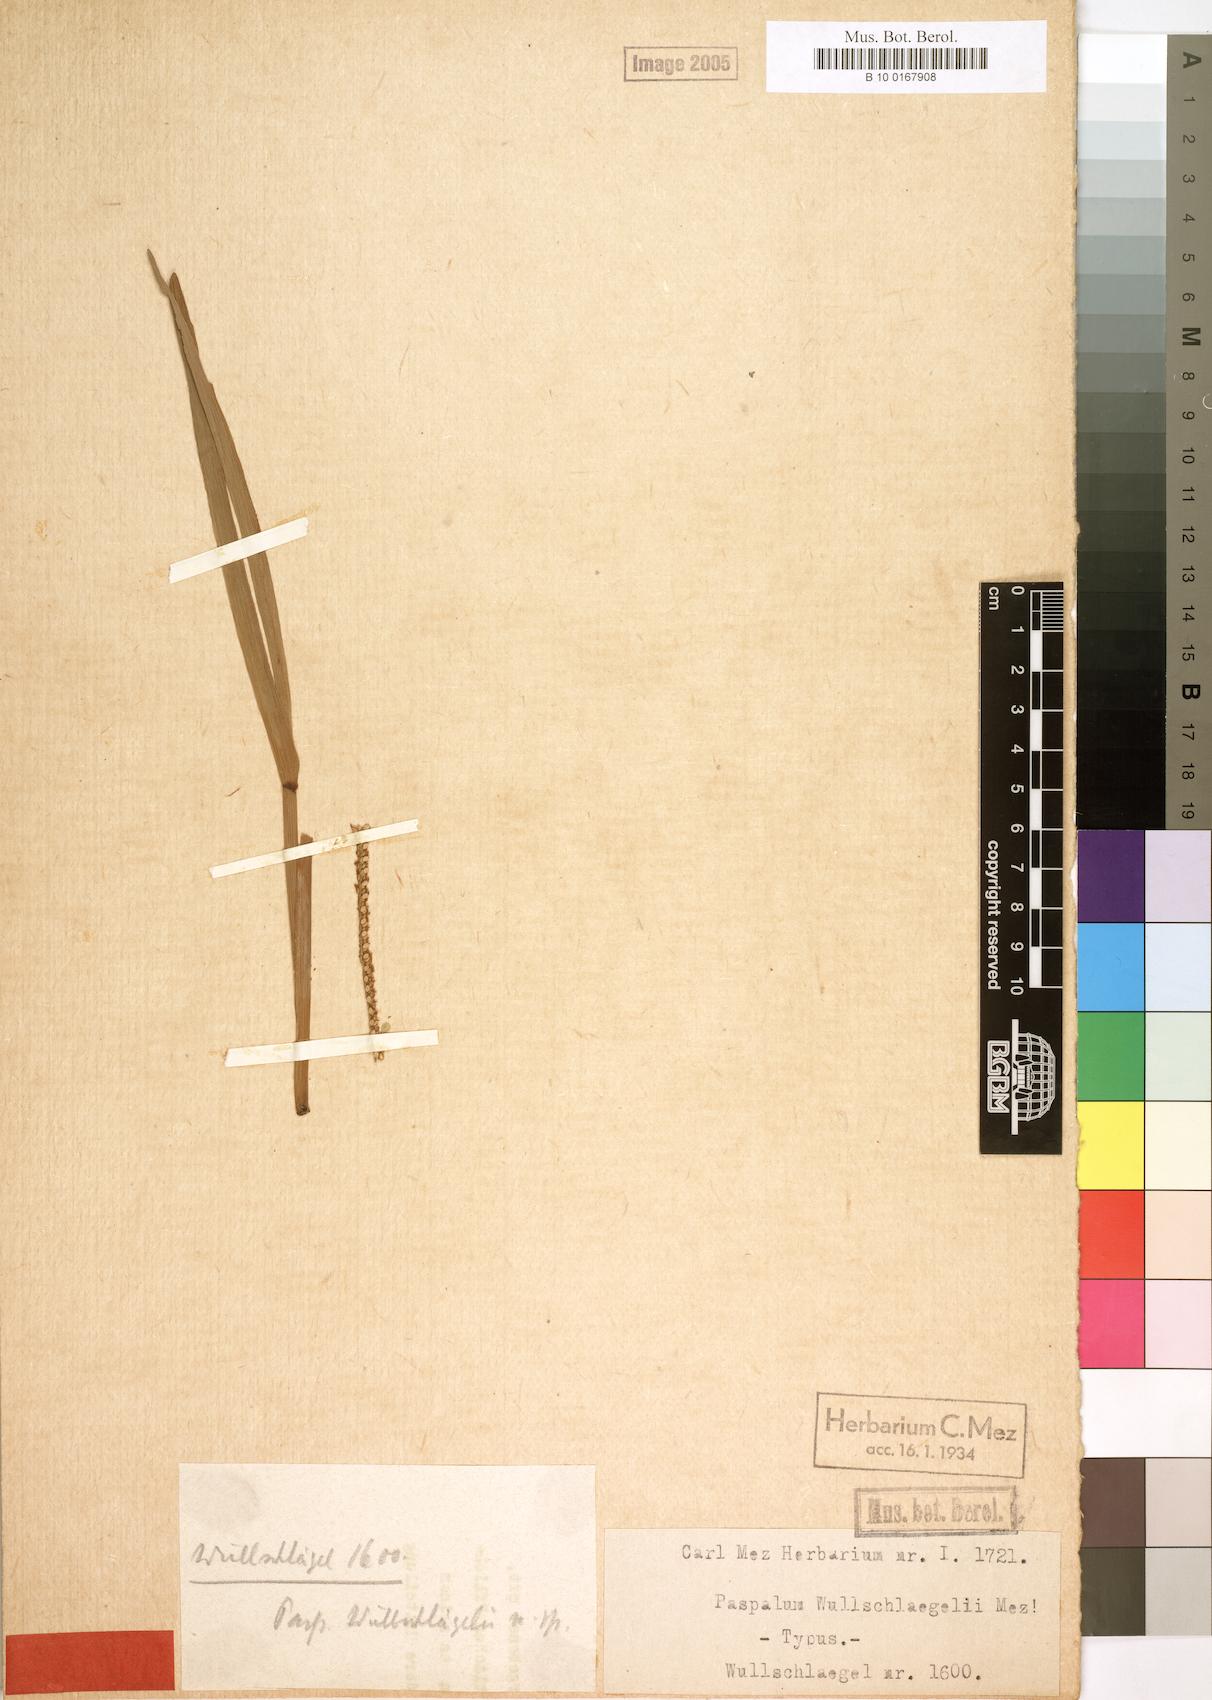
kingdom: Plantae
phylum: Tracheophyta
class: Liliopsida
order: Poales
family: Poaceae
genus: Paspalum
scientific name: Paspalum maritimum
